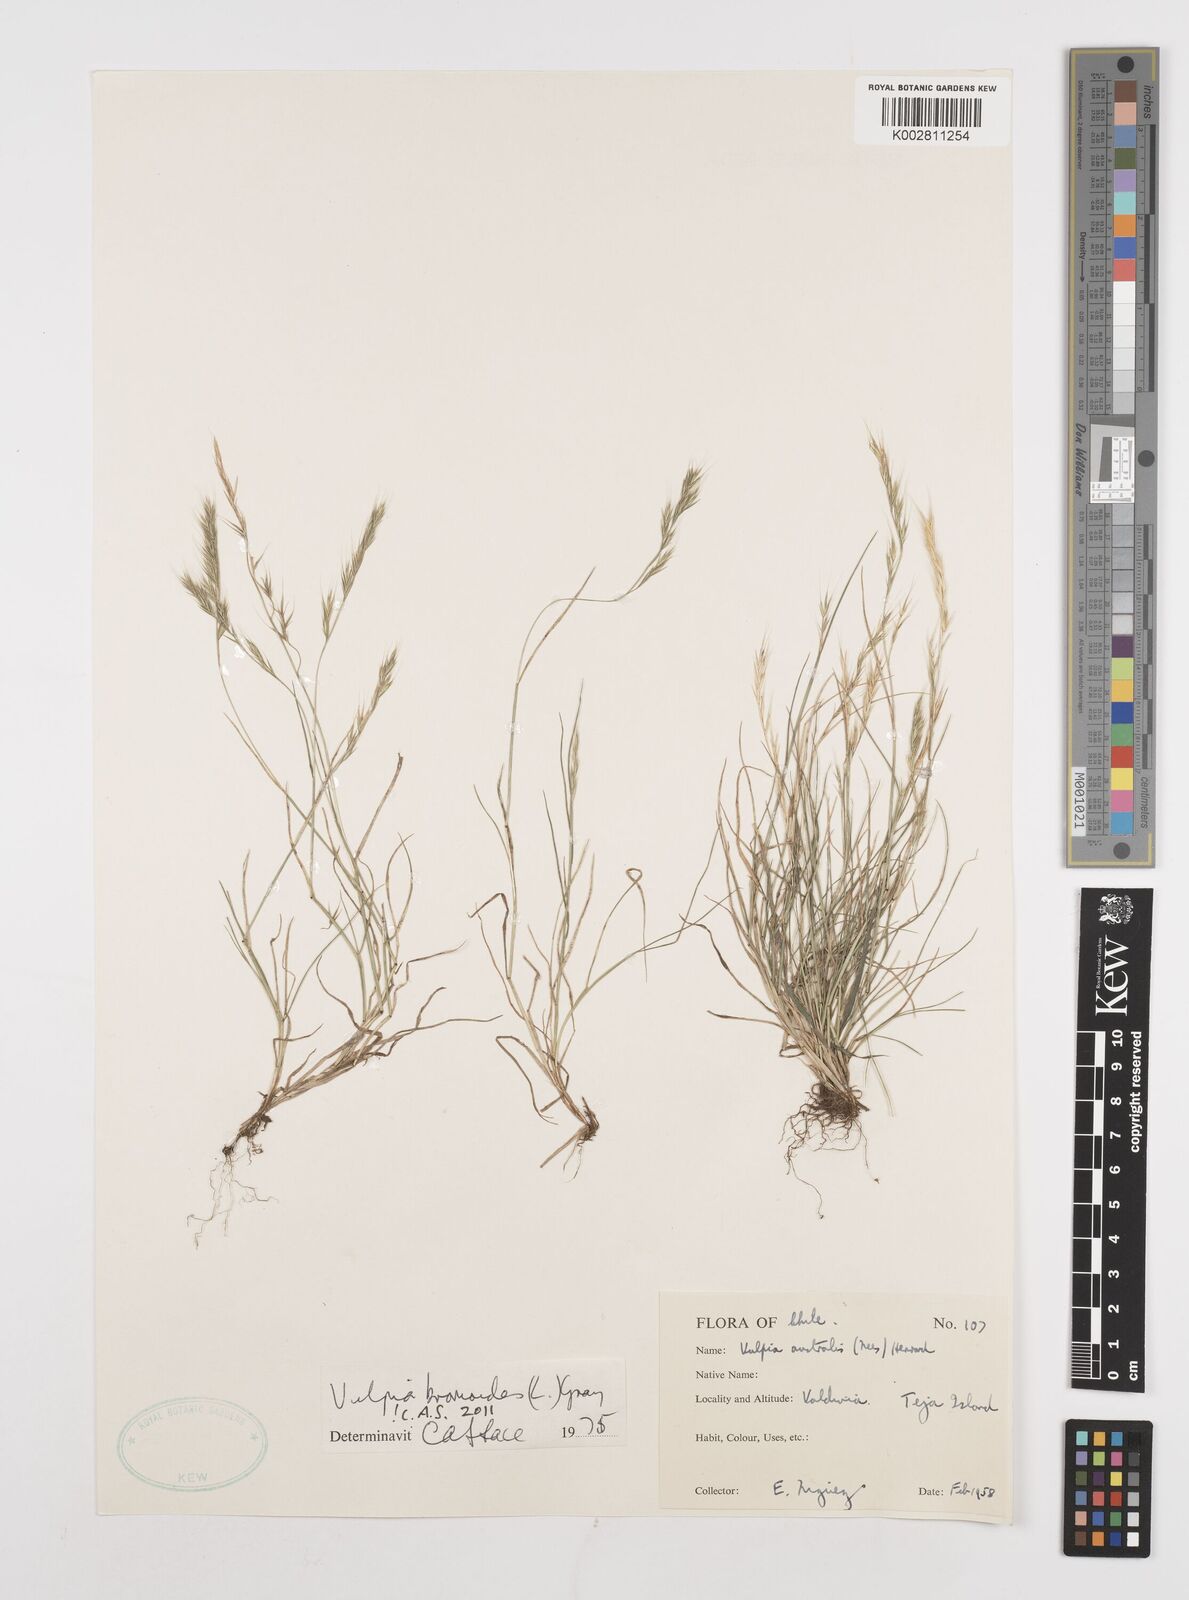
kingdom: Plantae
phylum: Tracheophyta
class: Liliopsida
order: Poales
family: Poaceae
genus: Festuca
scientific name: Festuca bromoides
